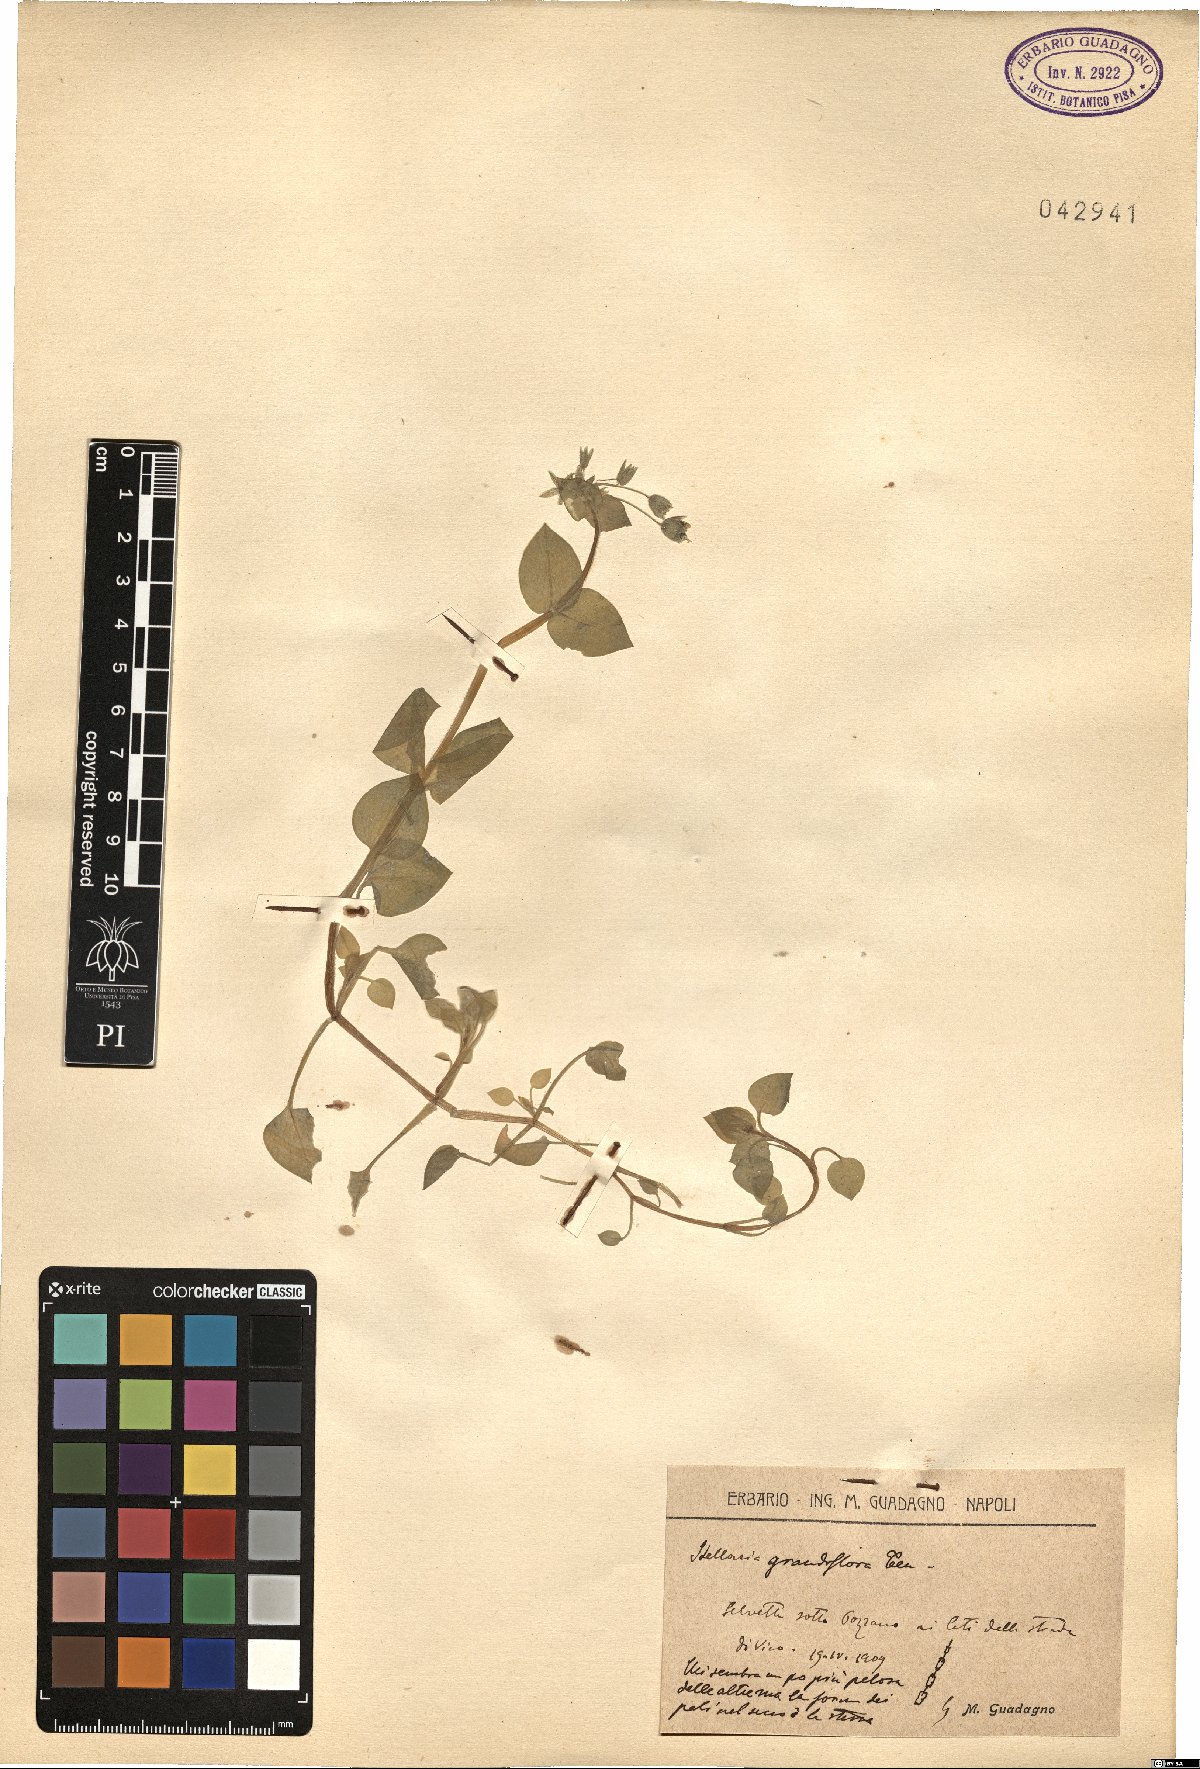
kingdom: Plantae
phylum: Tracheophyta
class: Magnoliopsida
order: Caryophyllales
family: Caryophyllaceae
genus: Stellaria
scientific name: Stellaria
